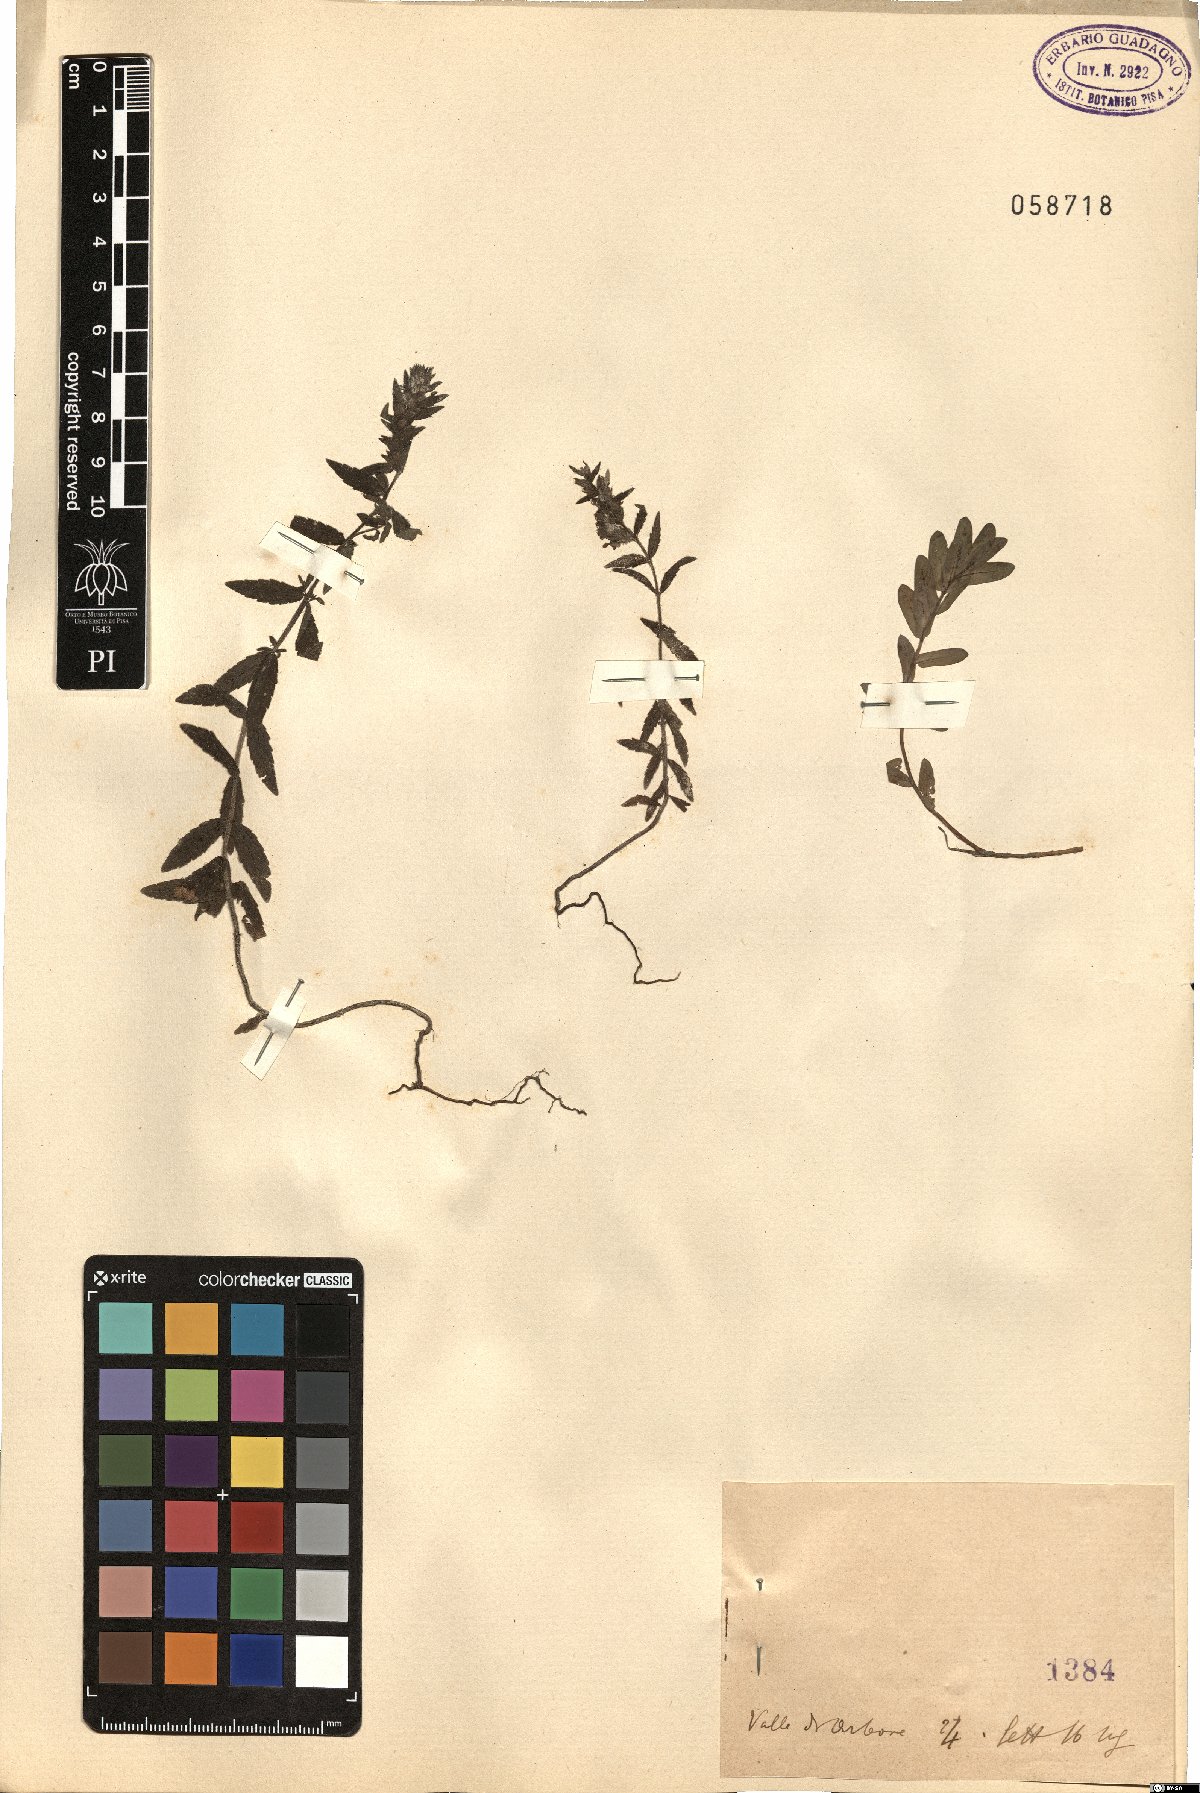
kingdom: Plantae
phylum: Tracheophyta
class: Magnoliopsida
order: Lamiales
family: Orobanchaceae
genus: Bartsia
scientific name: Bartsia
